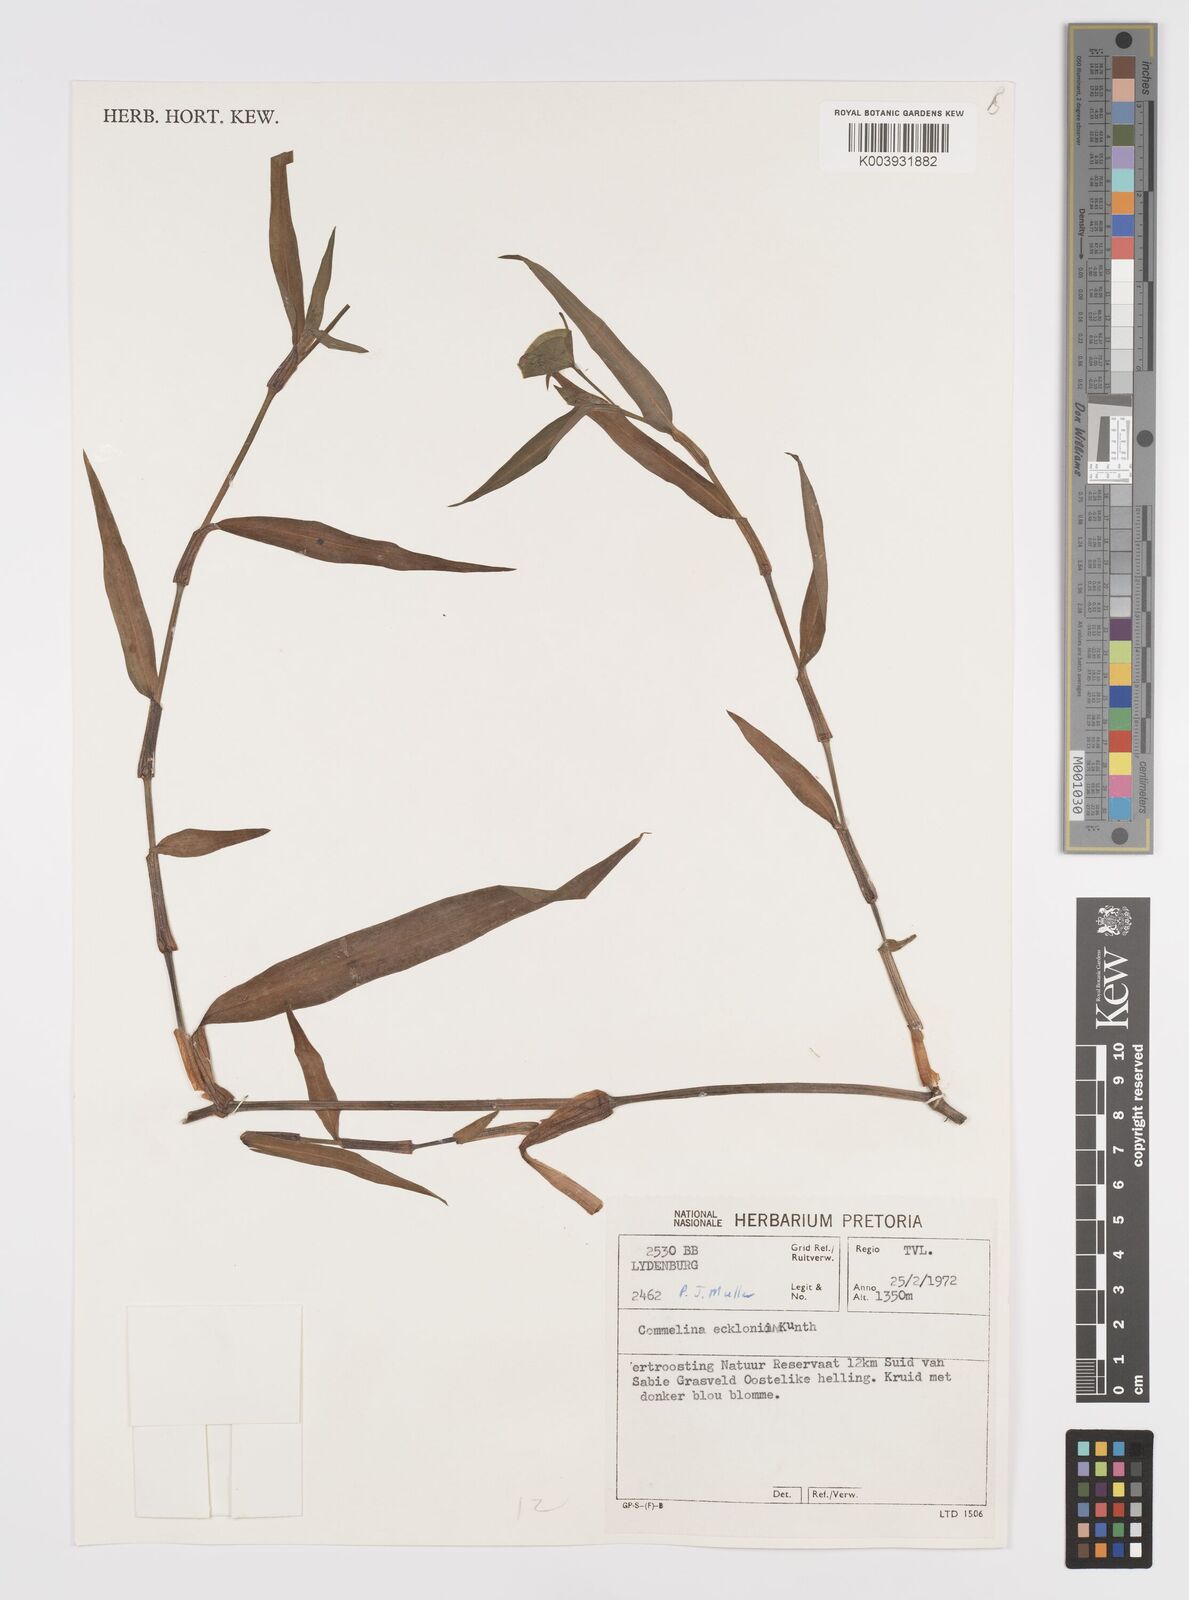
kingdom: Plantae
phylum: Tracheophyta
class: Liliopsida
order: Commelinales
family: Commelinaceae
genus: Commelina
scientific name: Commelina eckloniana
